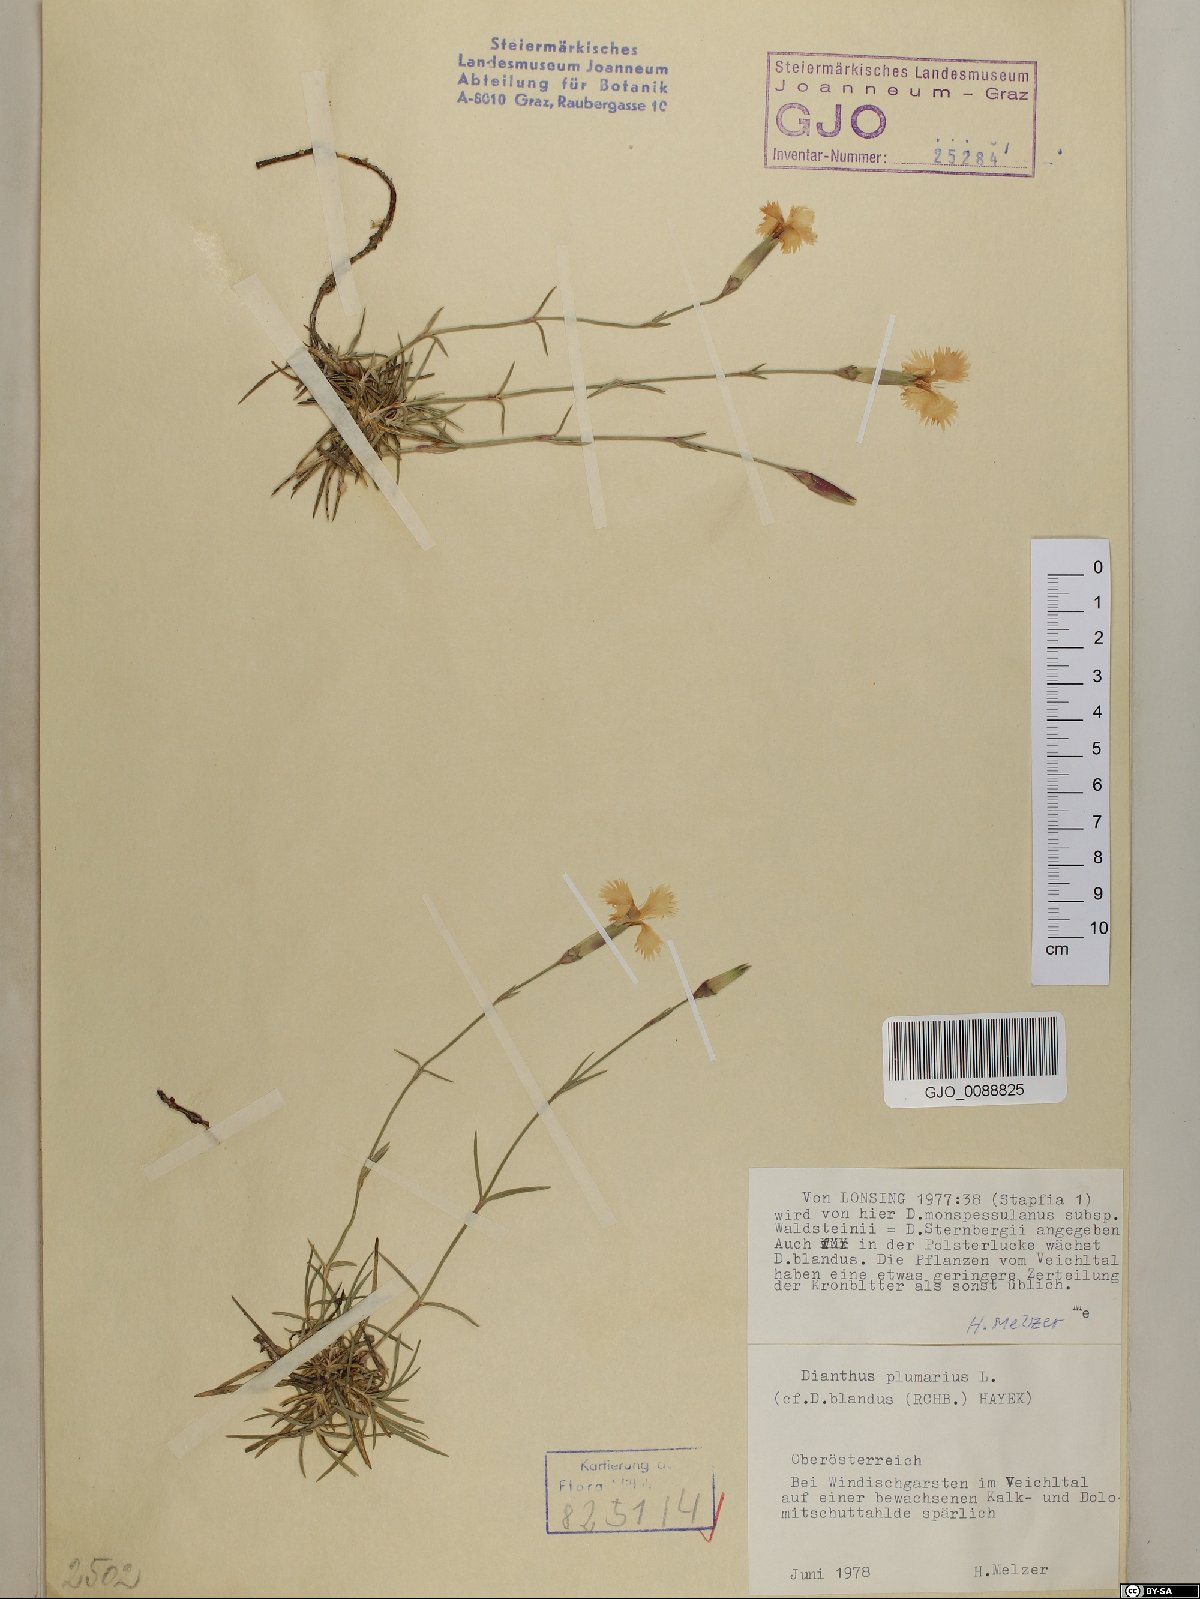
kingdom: Plantae
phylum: Tracheophyta
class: Magnoliopsida
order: Caryophyllales
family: Caryophyllaceae
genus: Dianthus
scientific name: Dianthus plumarius
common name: Pink
